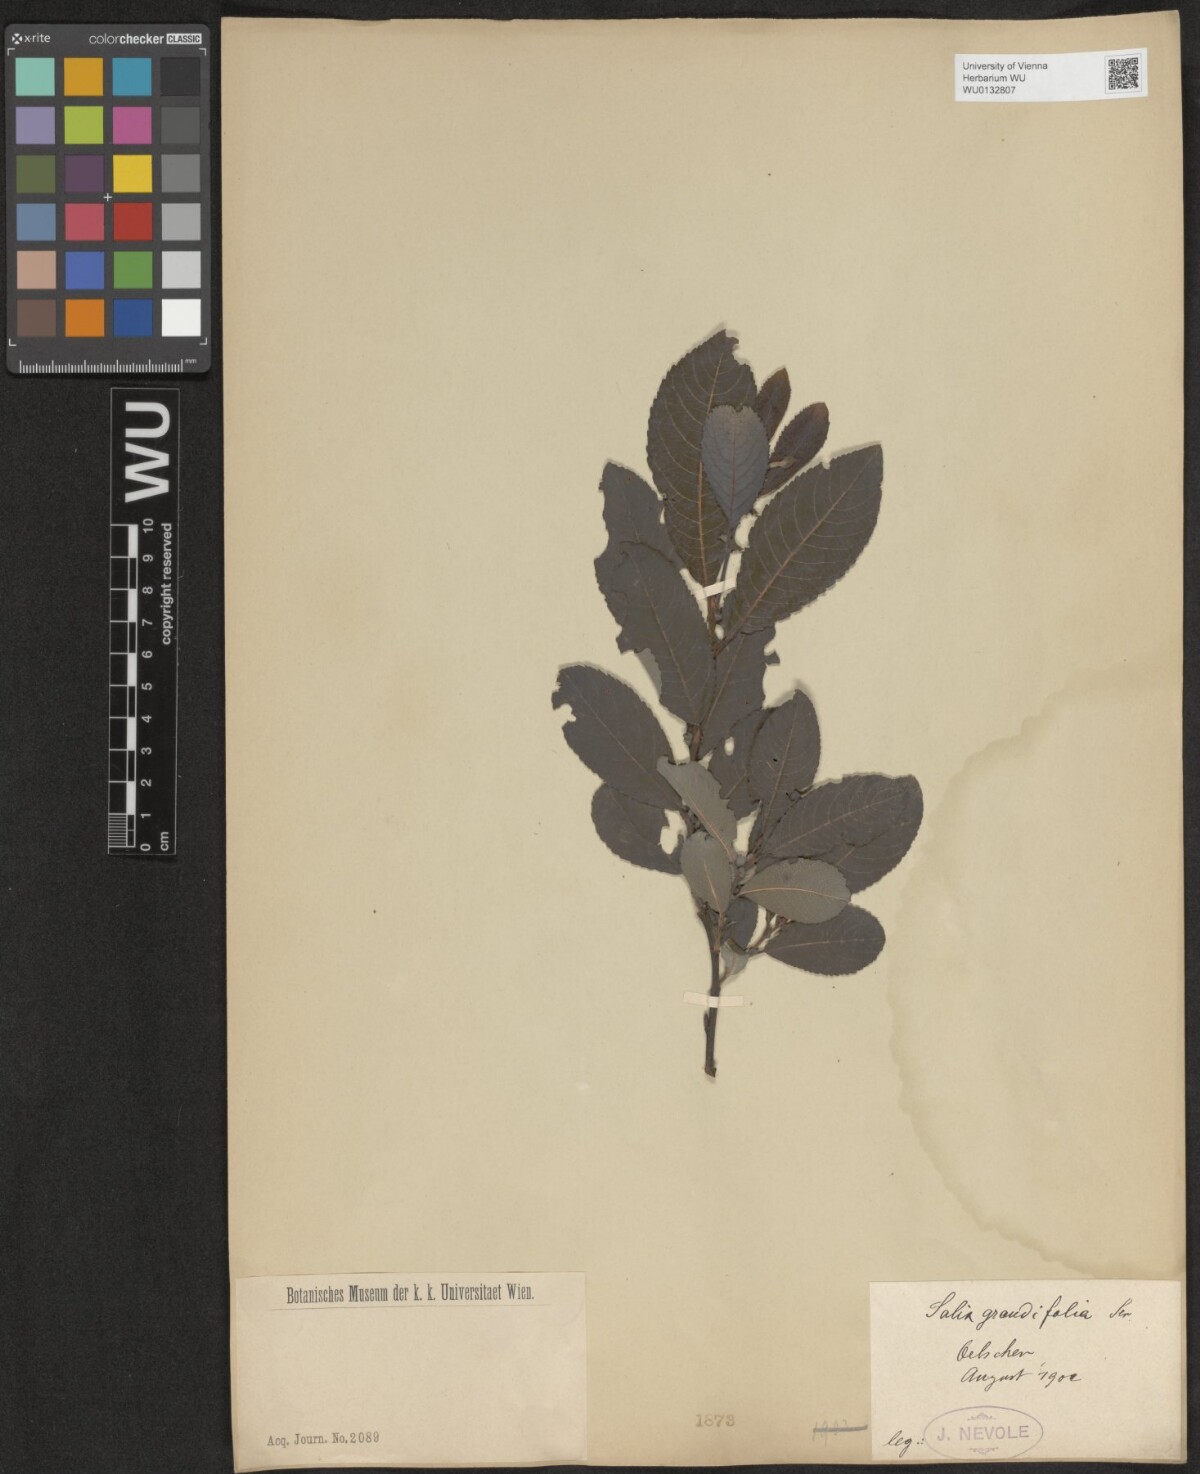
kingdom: Plantae
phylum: Tracheophyta
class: Magnoliopsida
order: Malpighiales
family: Salicaceae
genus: Salix
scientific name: Salix appendiculata
